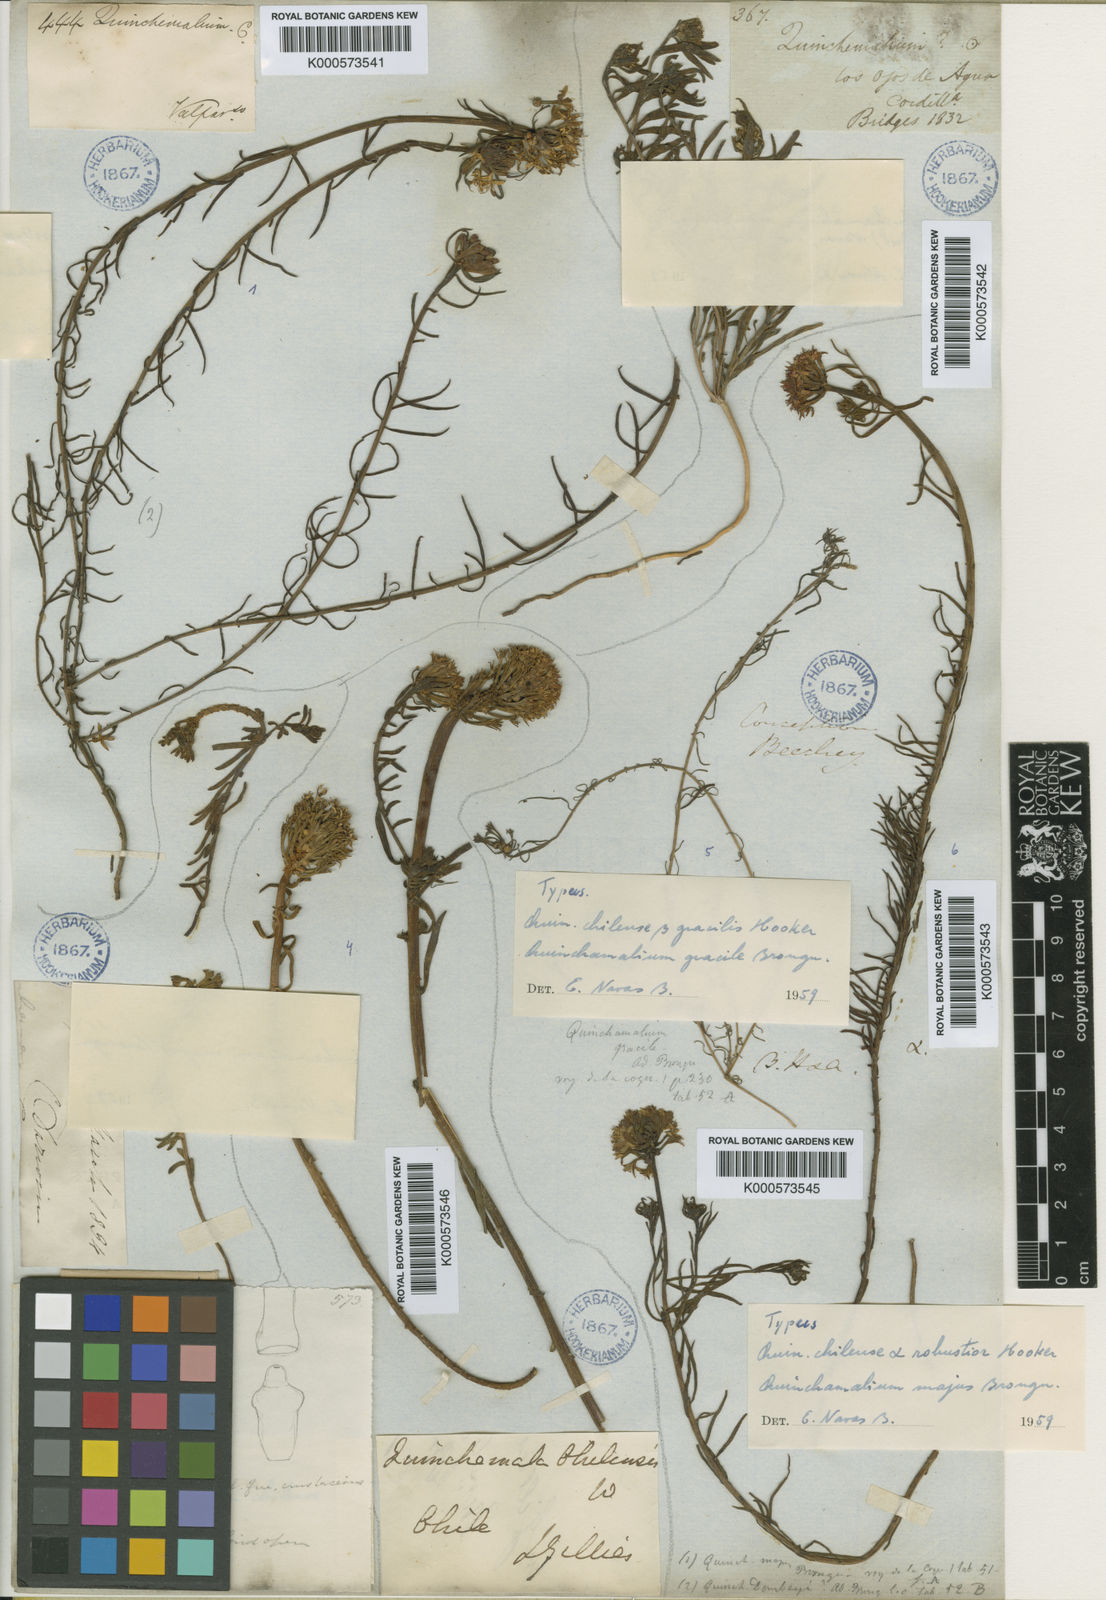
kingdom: Plantae
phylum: Tracheophyta
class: Magnoliopsida
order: Santalales
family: Schoepfiaceae
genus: Quinchamalium
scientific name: Quinchamalium chilense
